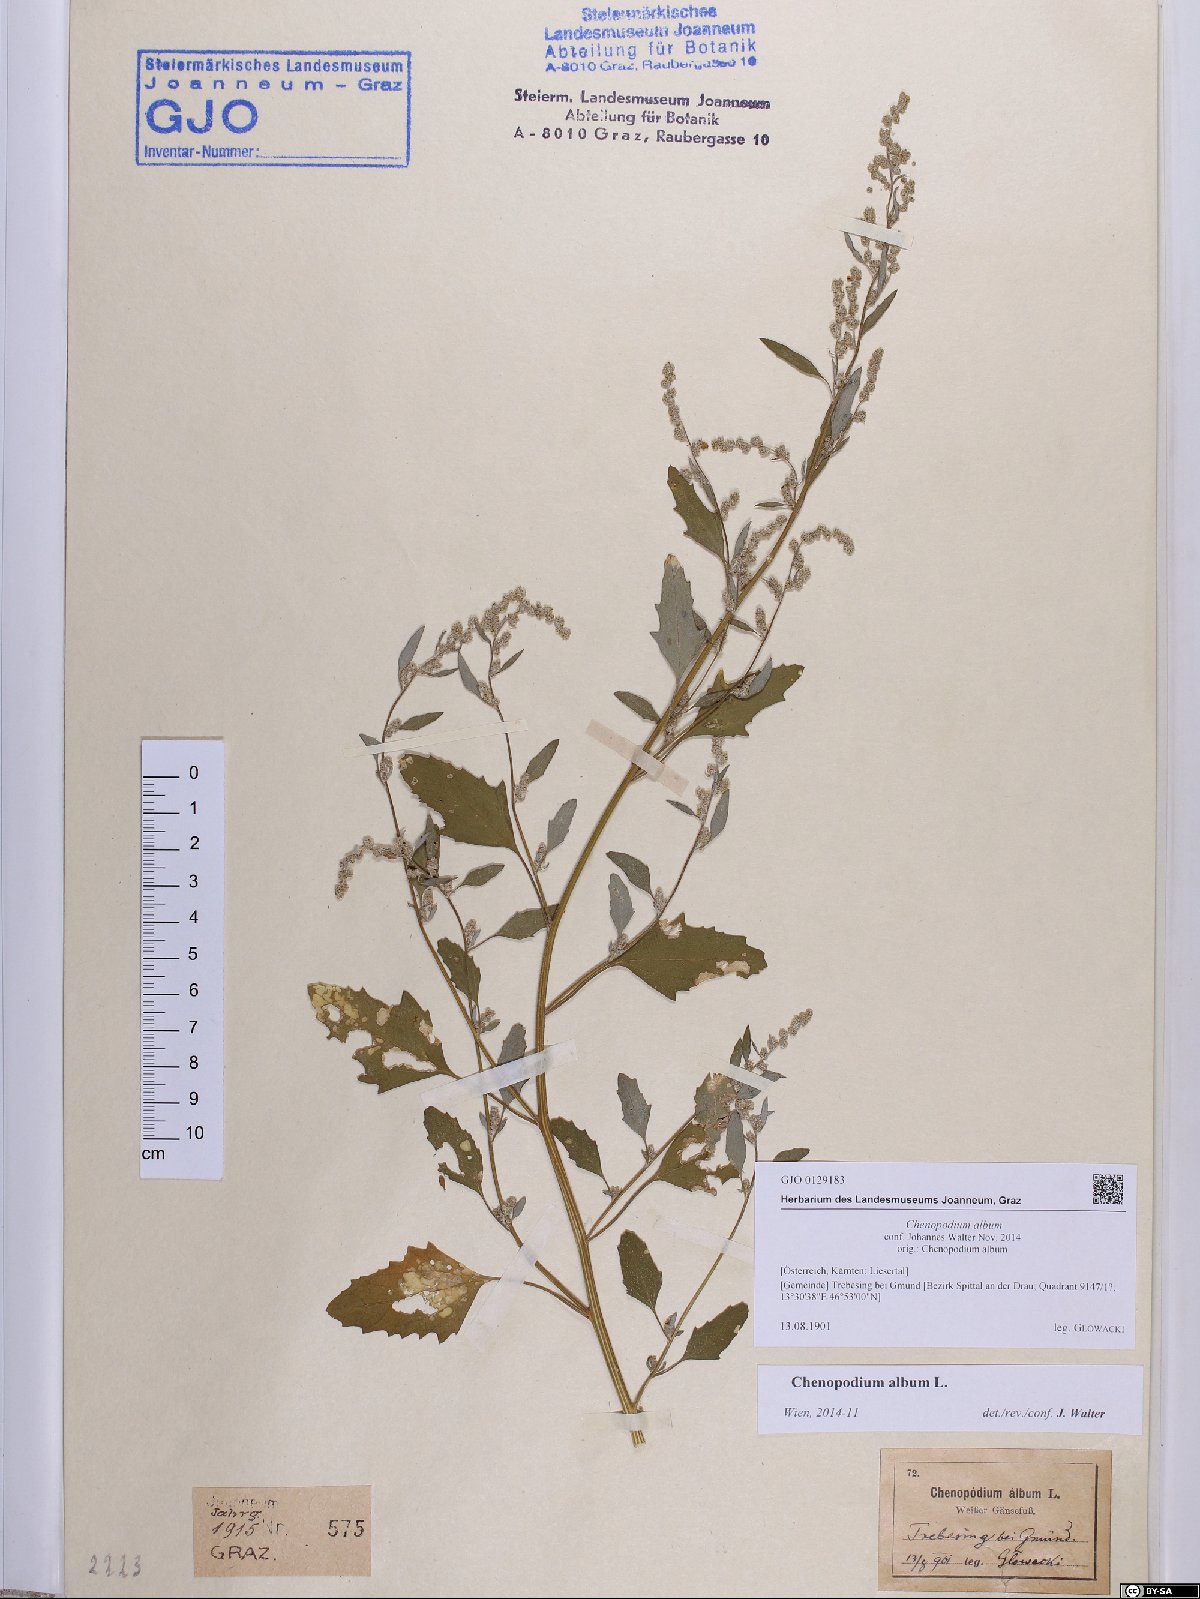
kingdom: Plantae
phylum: Tracheophyta
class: Magnoliopsida
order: Caryophyllales
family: Amaranthaceae
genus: Chenopodium
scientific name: Chenopodium album
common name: Fat-hen
